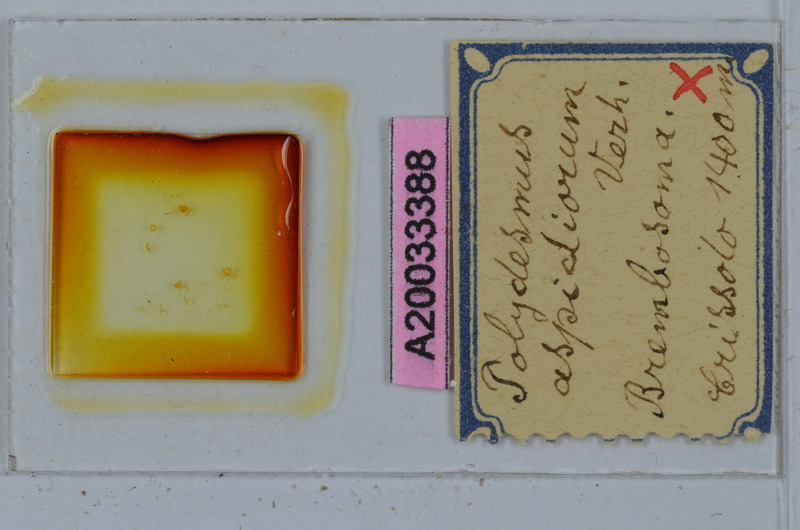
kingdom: Animalia
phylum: Arthropoda
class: Diplopoda
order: Polydesmida
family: Polydesmidae
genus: Polydesmus
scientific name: Polydesmus
